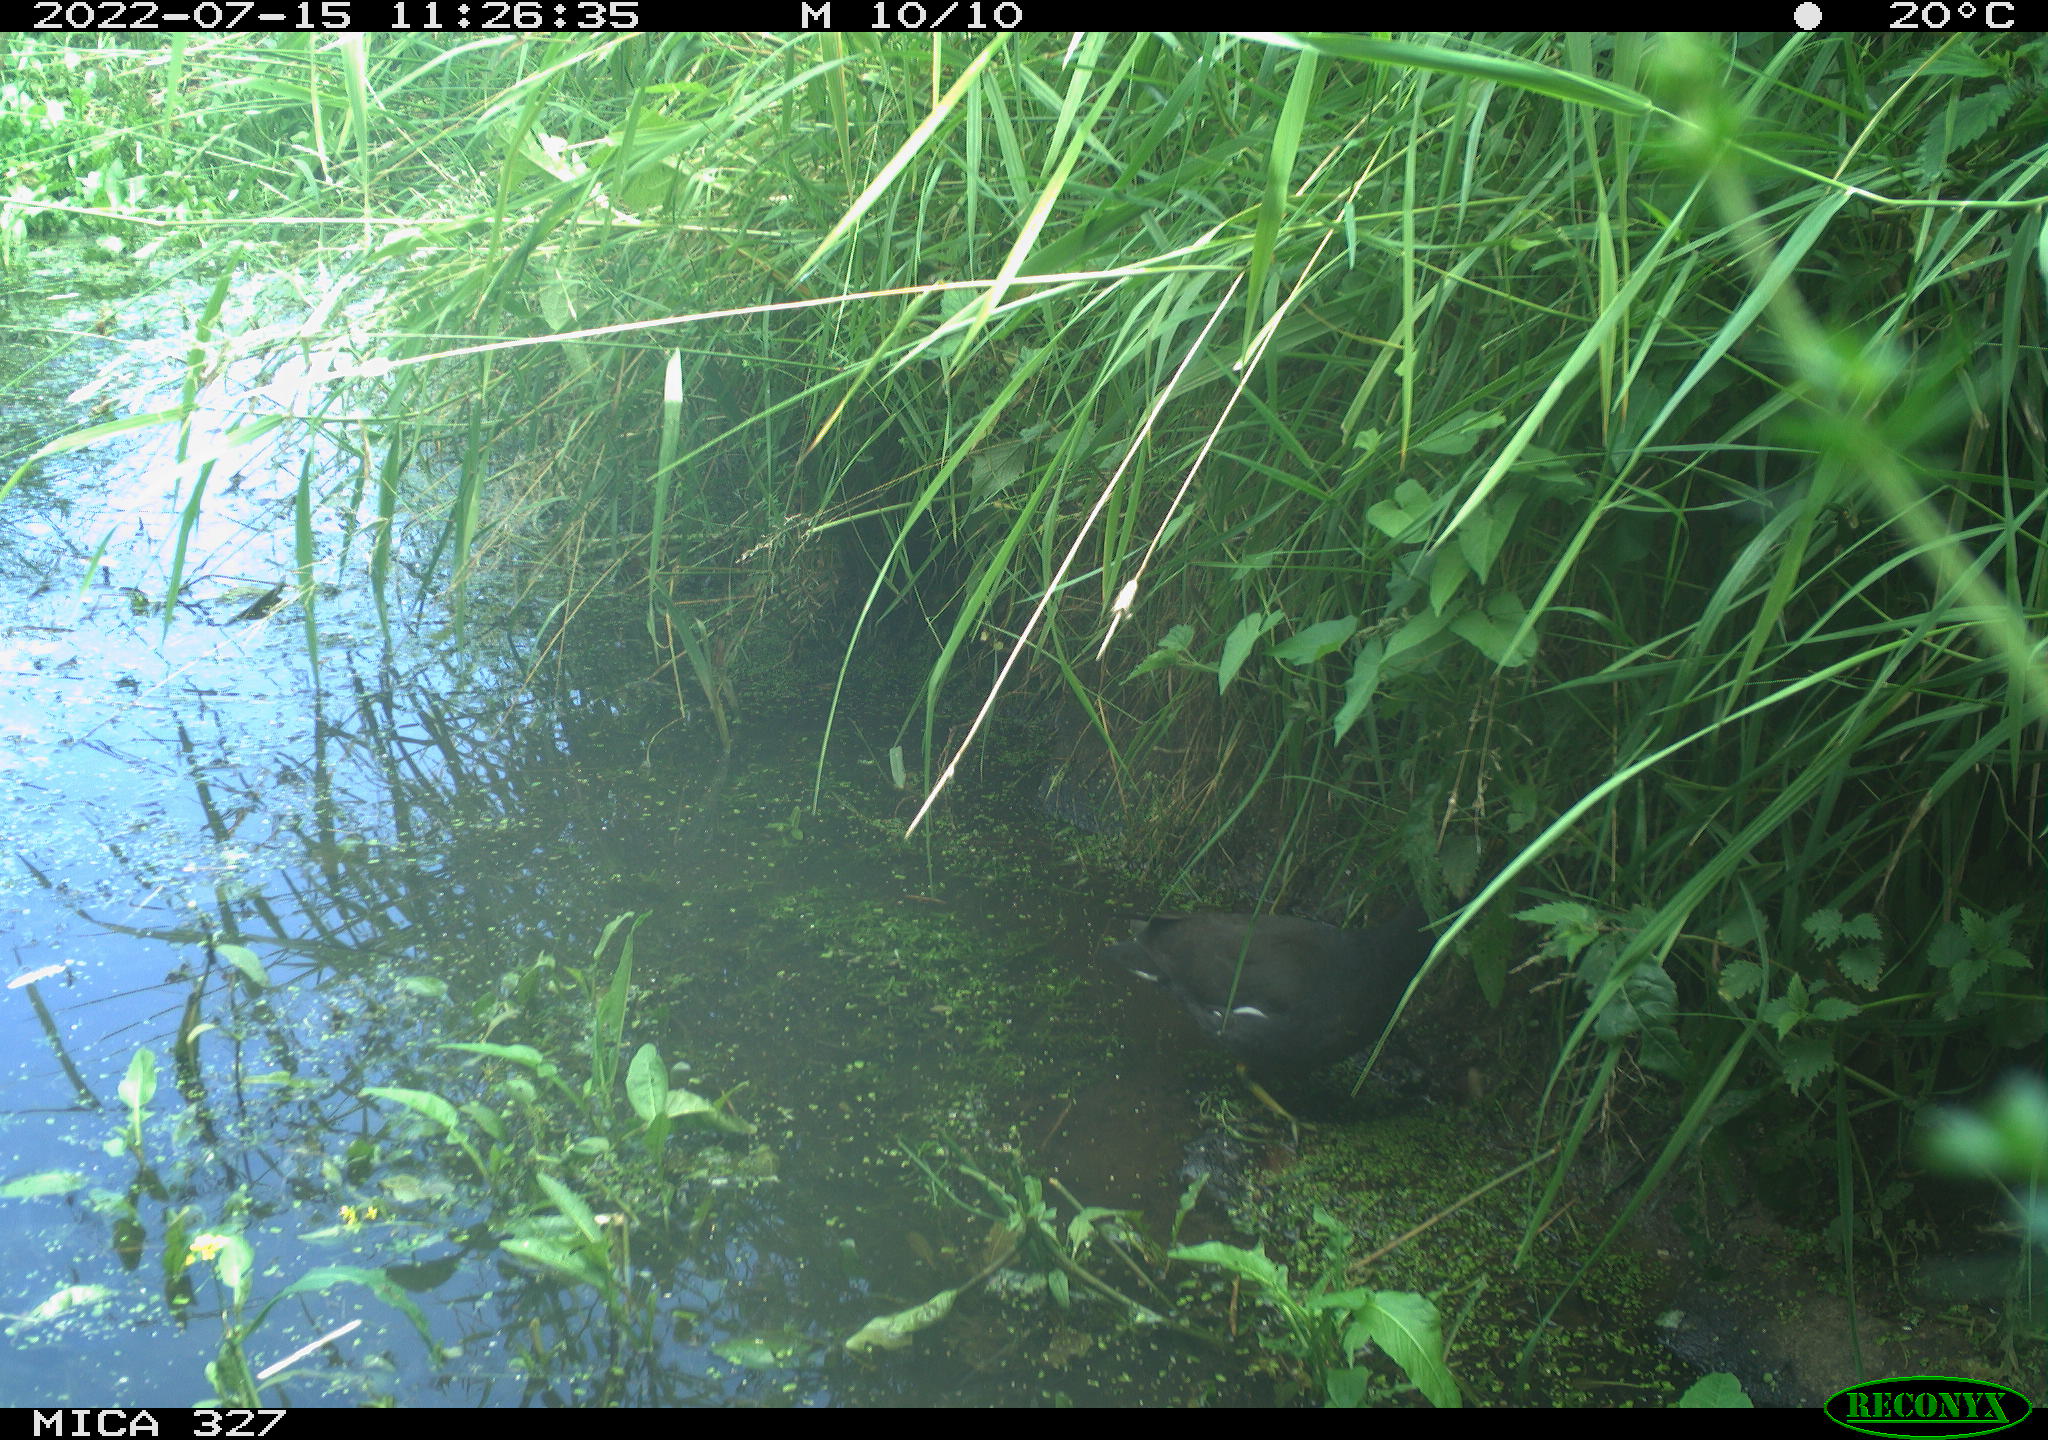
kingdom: Animalia
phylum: Chordata
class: Aves
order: Gruiformes
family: Rallidae
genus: Gallinula
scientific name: Gallinula chloropus
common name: Common moorhen
